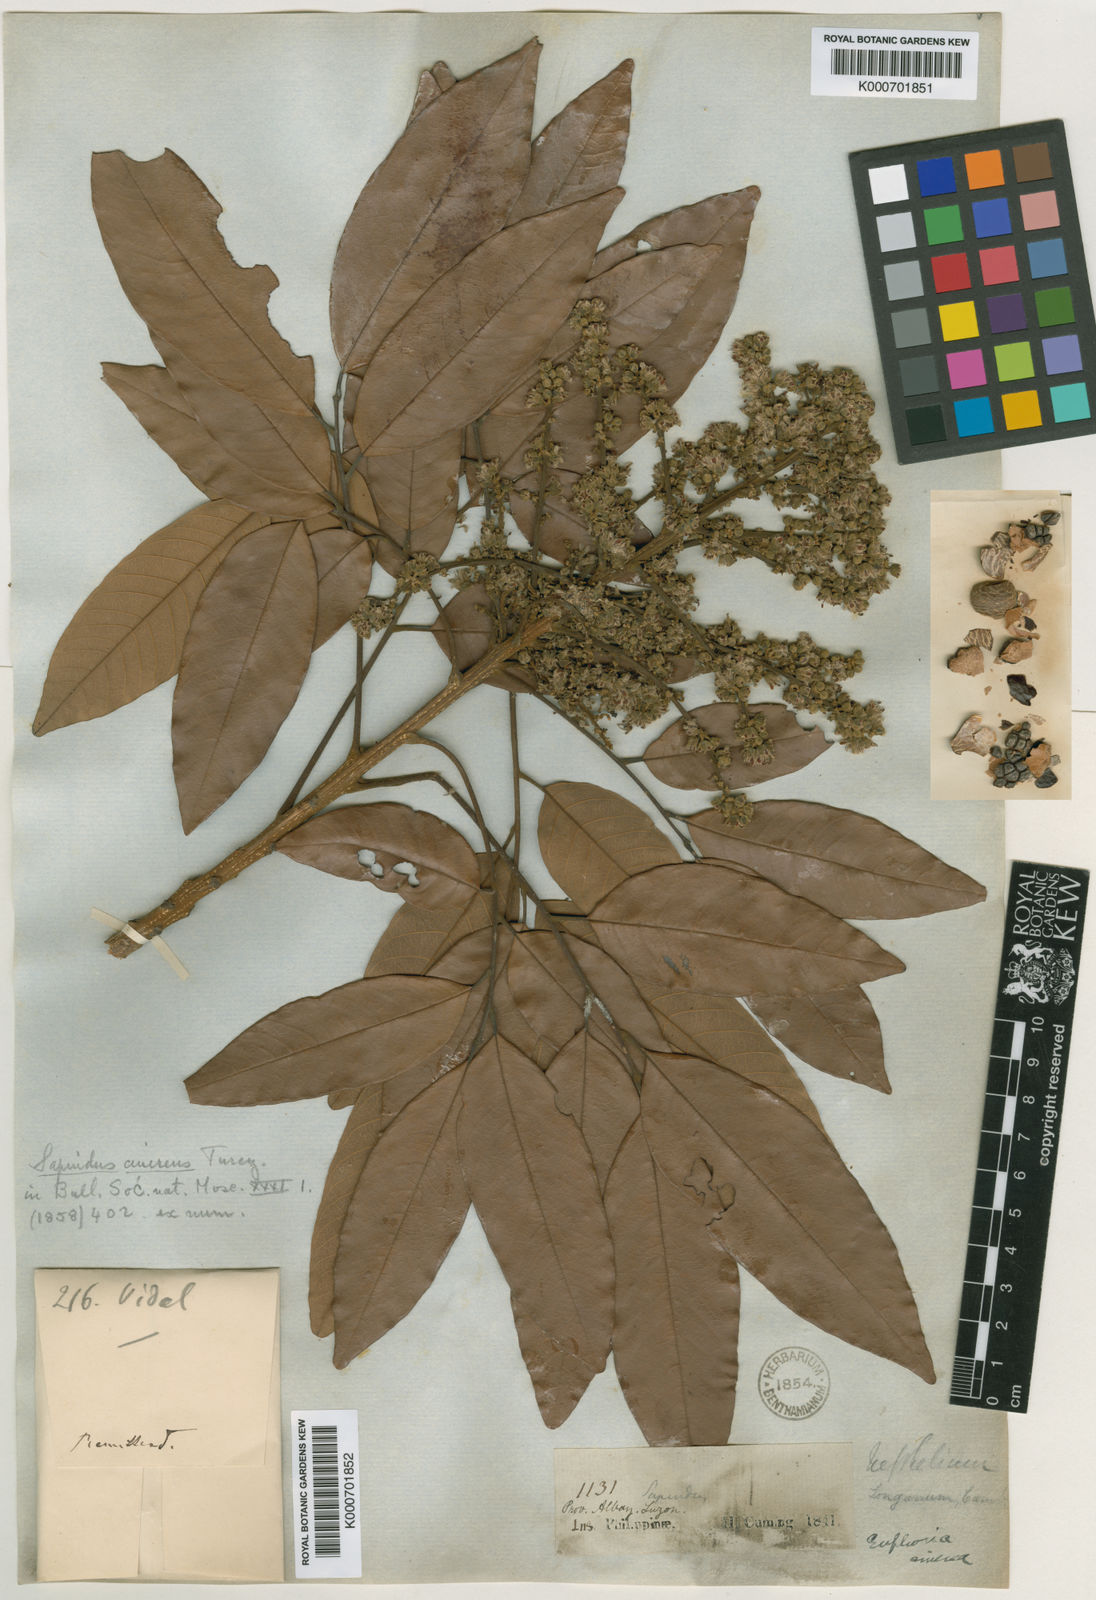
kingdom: Plantae
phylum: Tracheophyta
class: Magnoliopsida
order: Sapindales
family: Sapindaceae
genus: Dimocarpus
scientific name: Dimocarpus longan
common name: Longan
